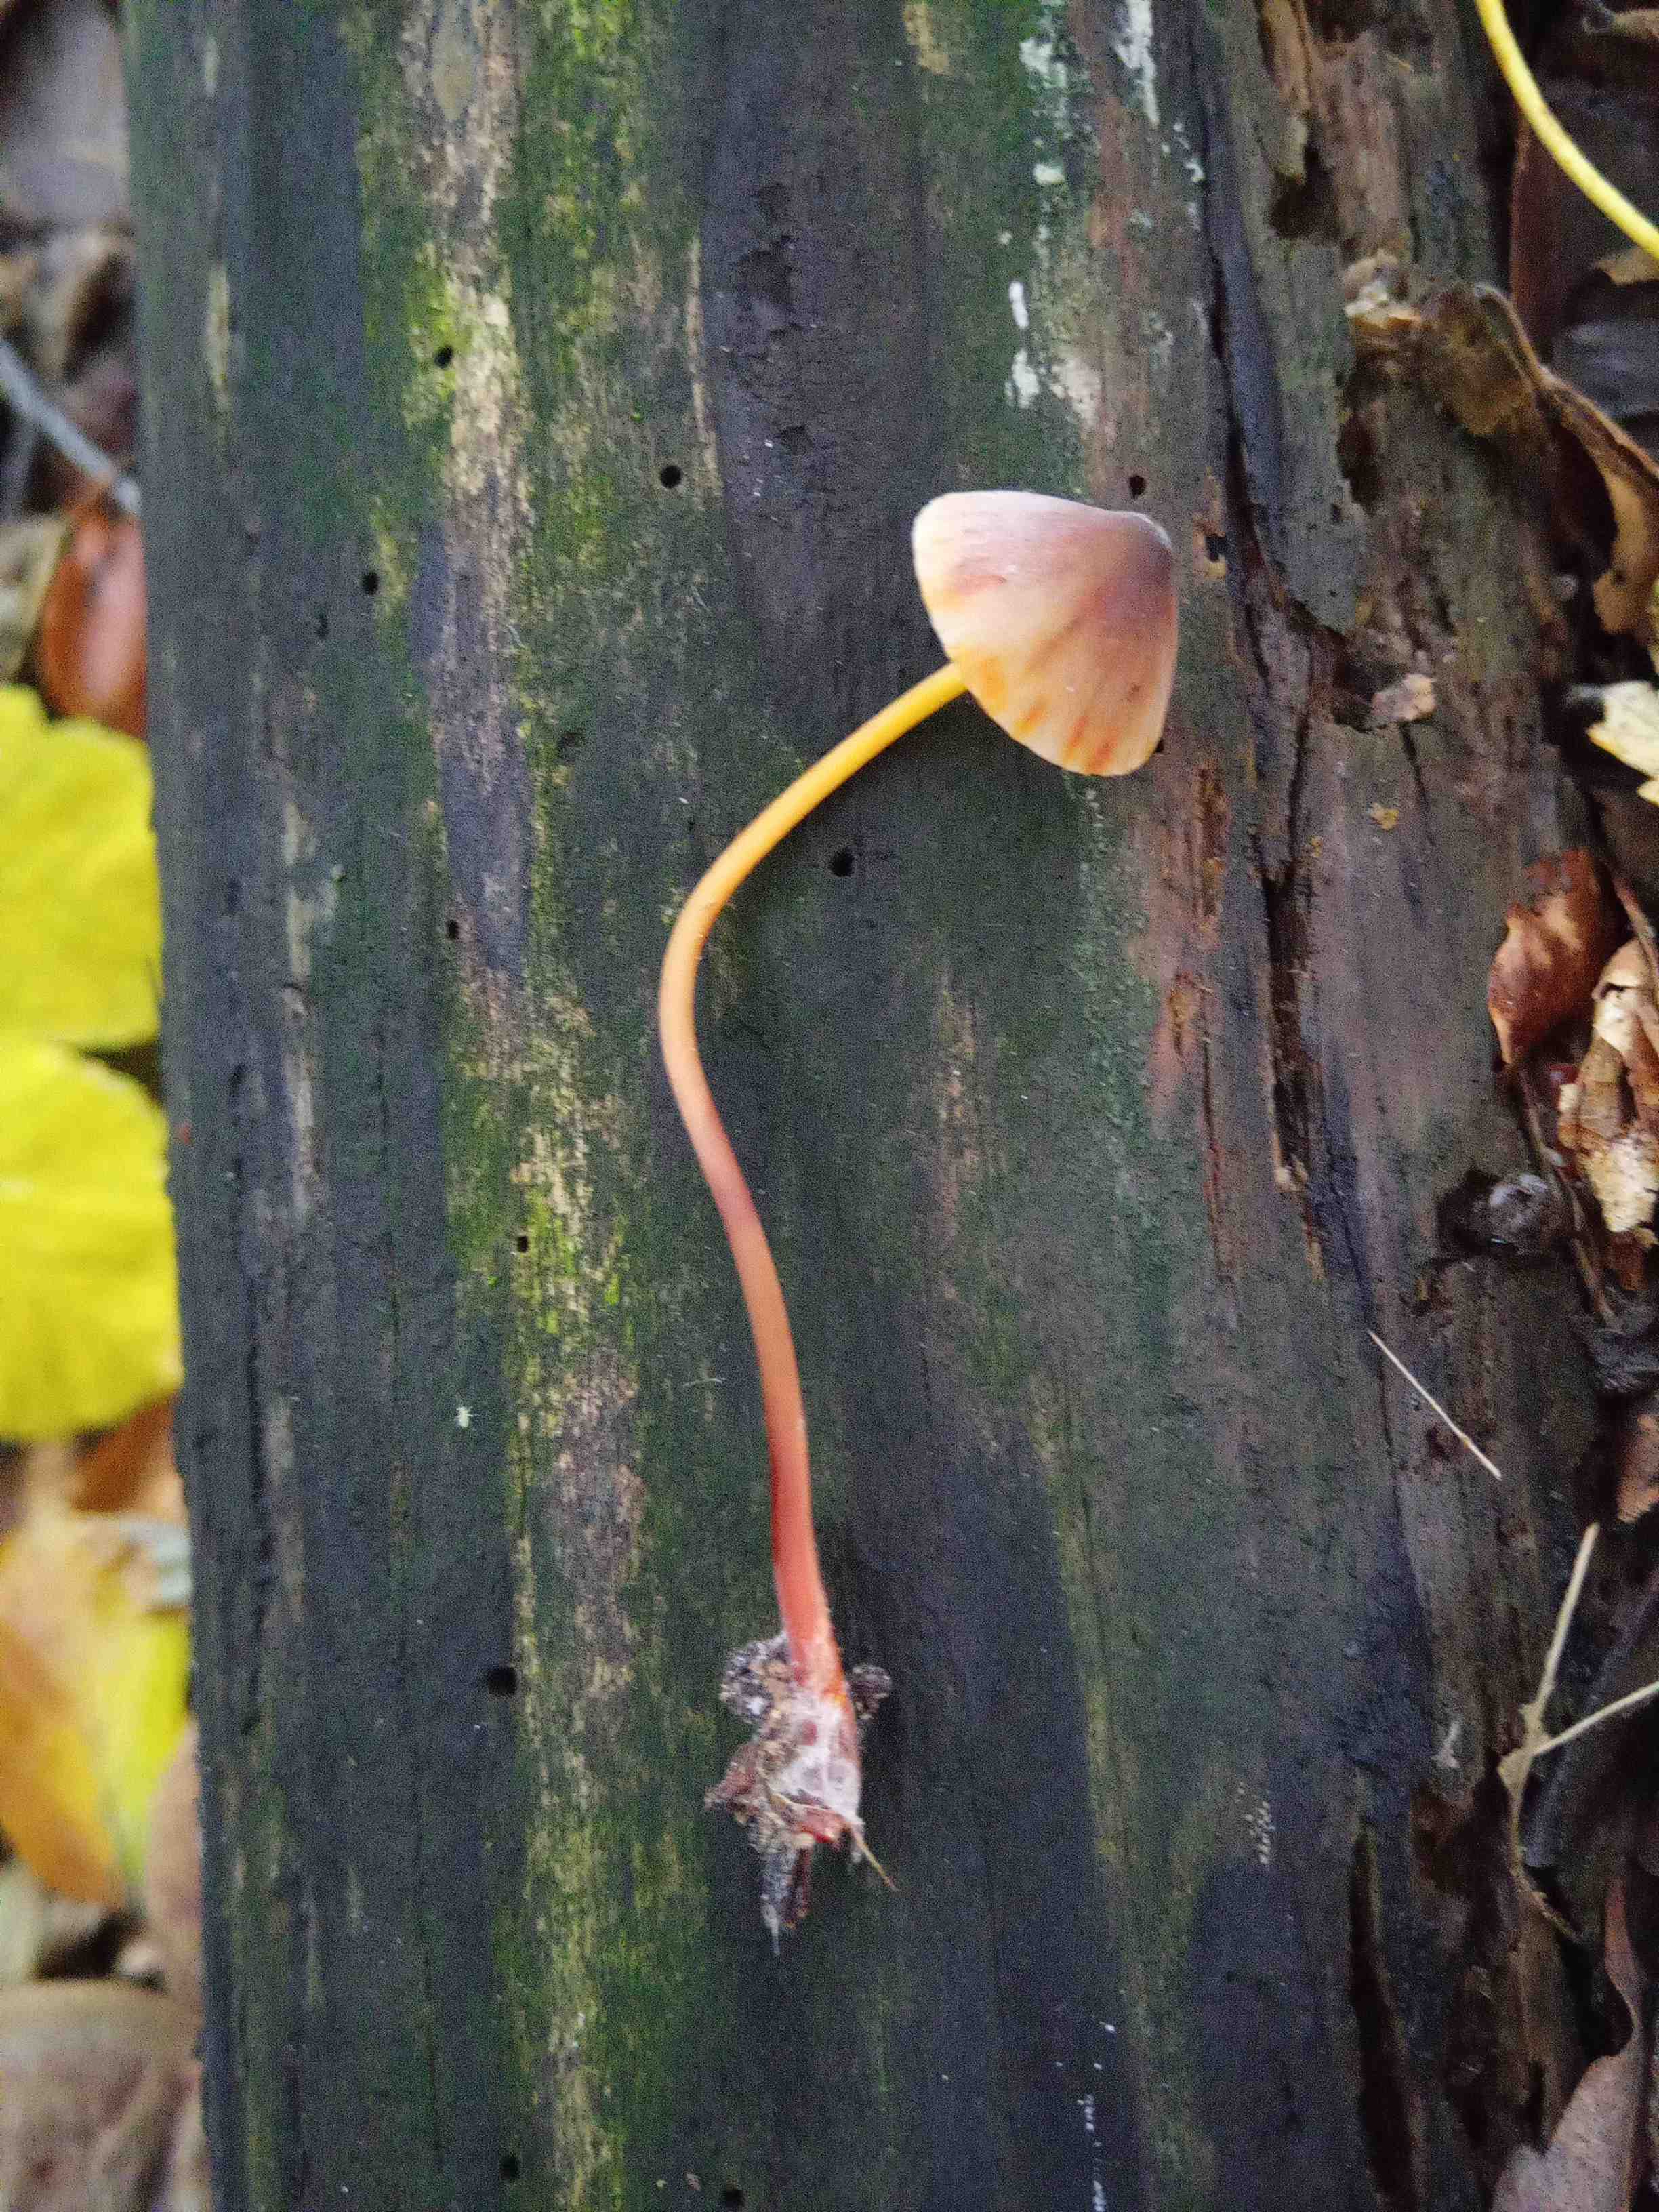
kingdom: Fungi
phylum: Basidiomycota
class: Agaricomycetes
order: Agaricales
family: Mycenaceae
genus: Mycena
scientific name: Mycena crocata
